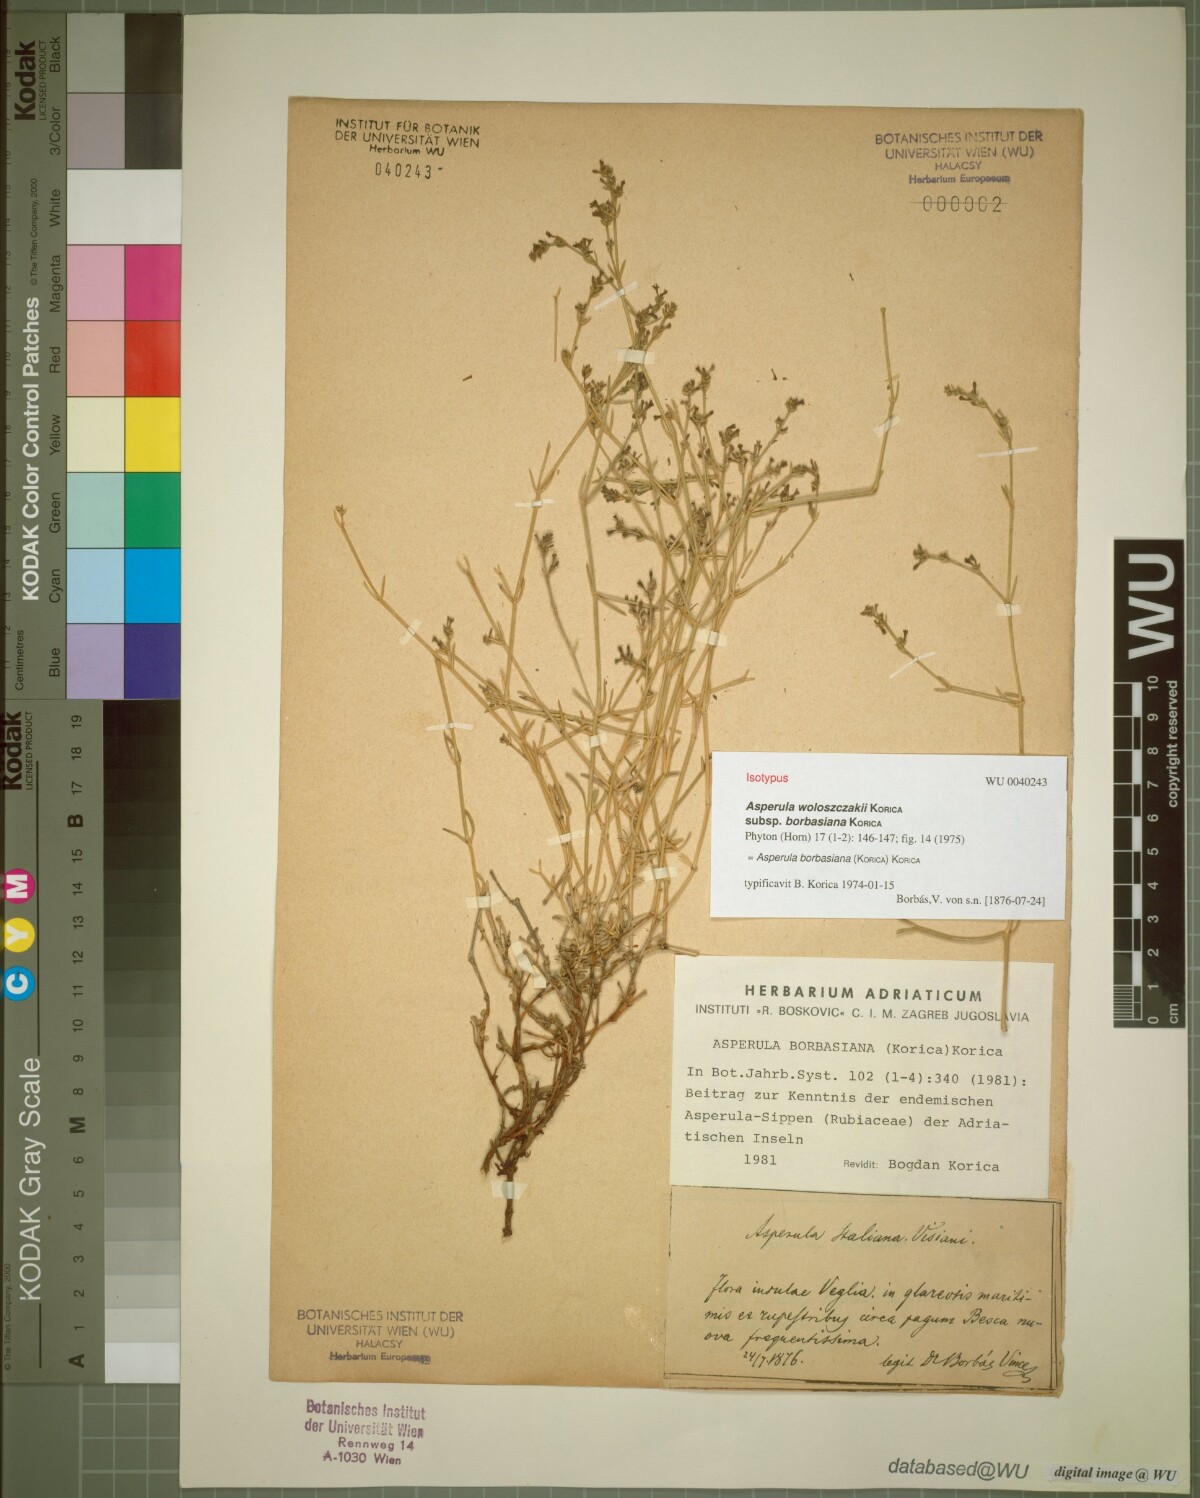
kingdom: Plantae
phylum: Tracheophyta
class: Magnoliopsida
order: Gentianales
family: Rubiaceae
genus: Cynanchica
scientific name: Cynanchica borbasiana
